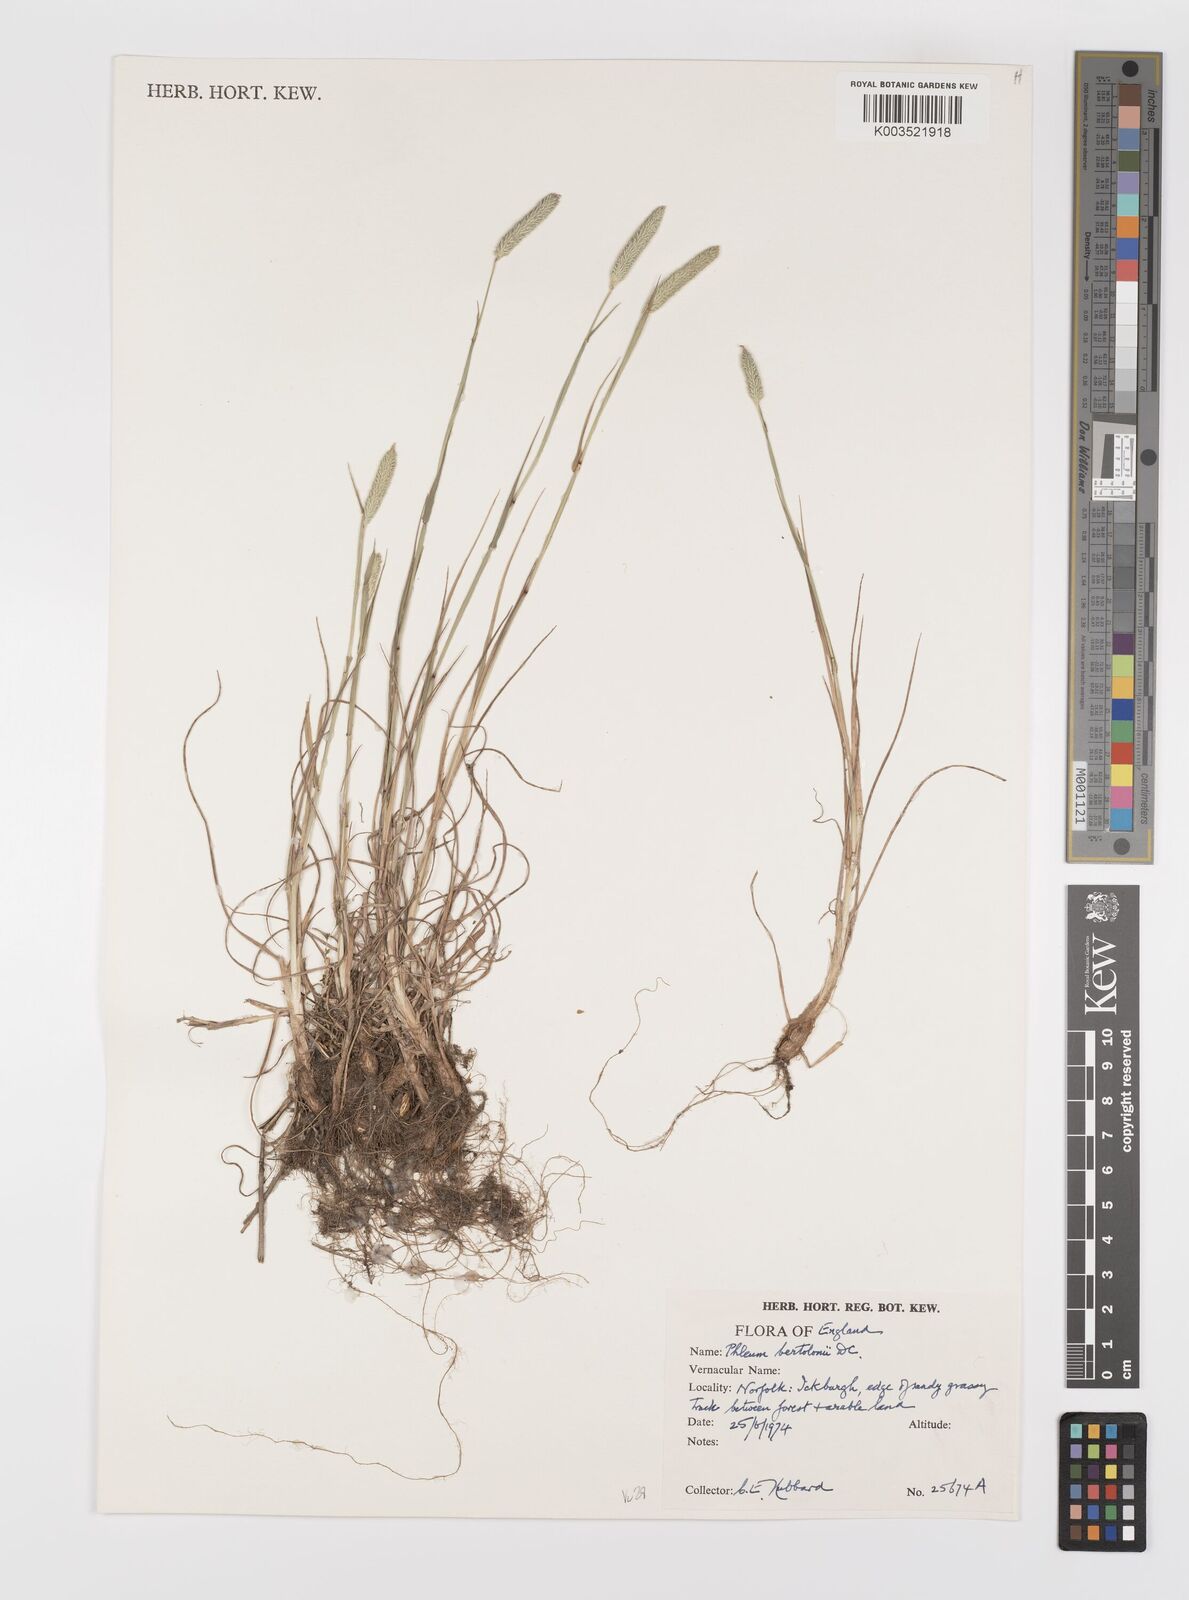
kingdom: Plantae
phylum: Tracheophyta
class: Liliopsida
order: Poales
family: Poaceae
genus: Phleum
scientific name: Phleum bertolonii
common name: Smaller cat's-tail
